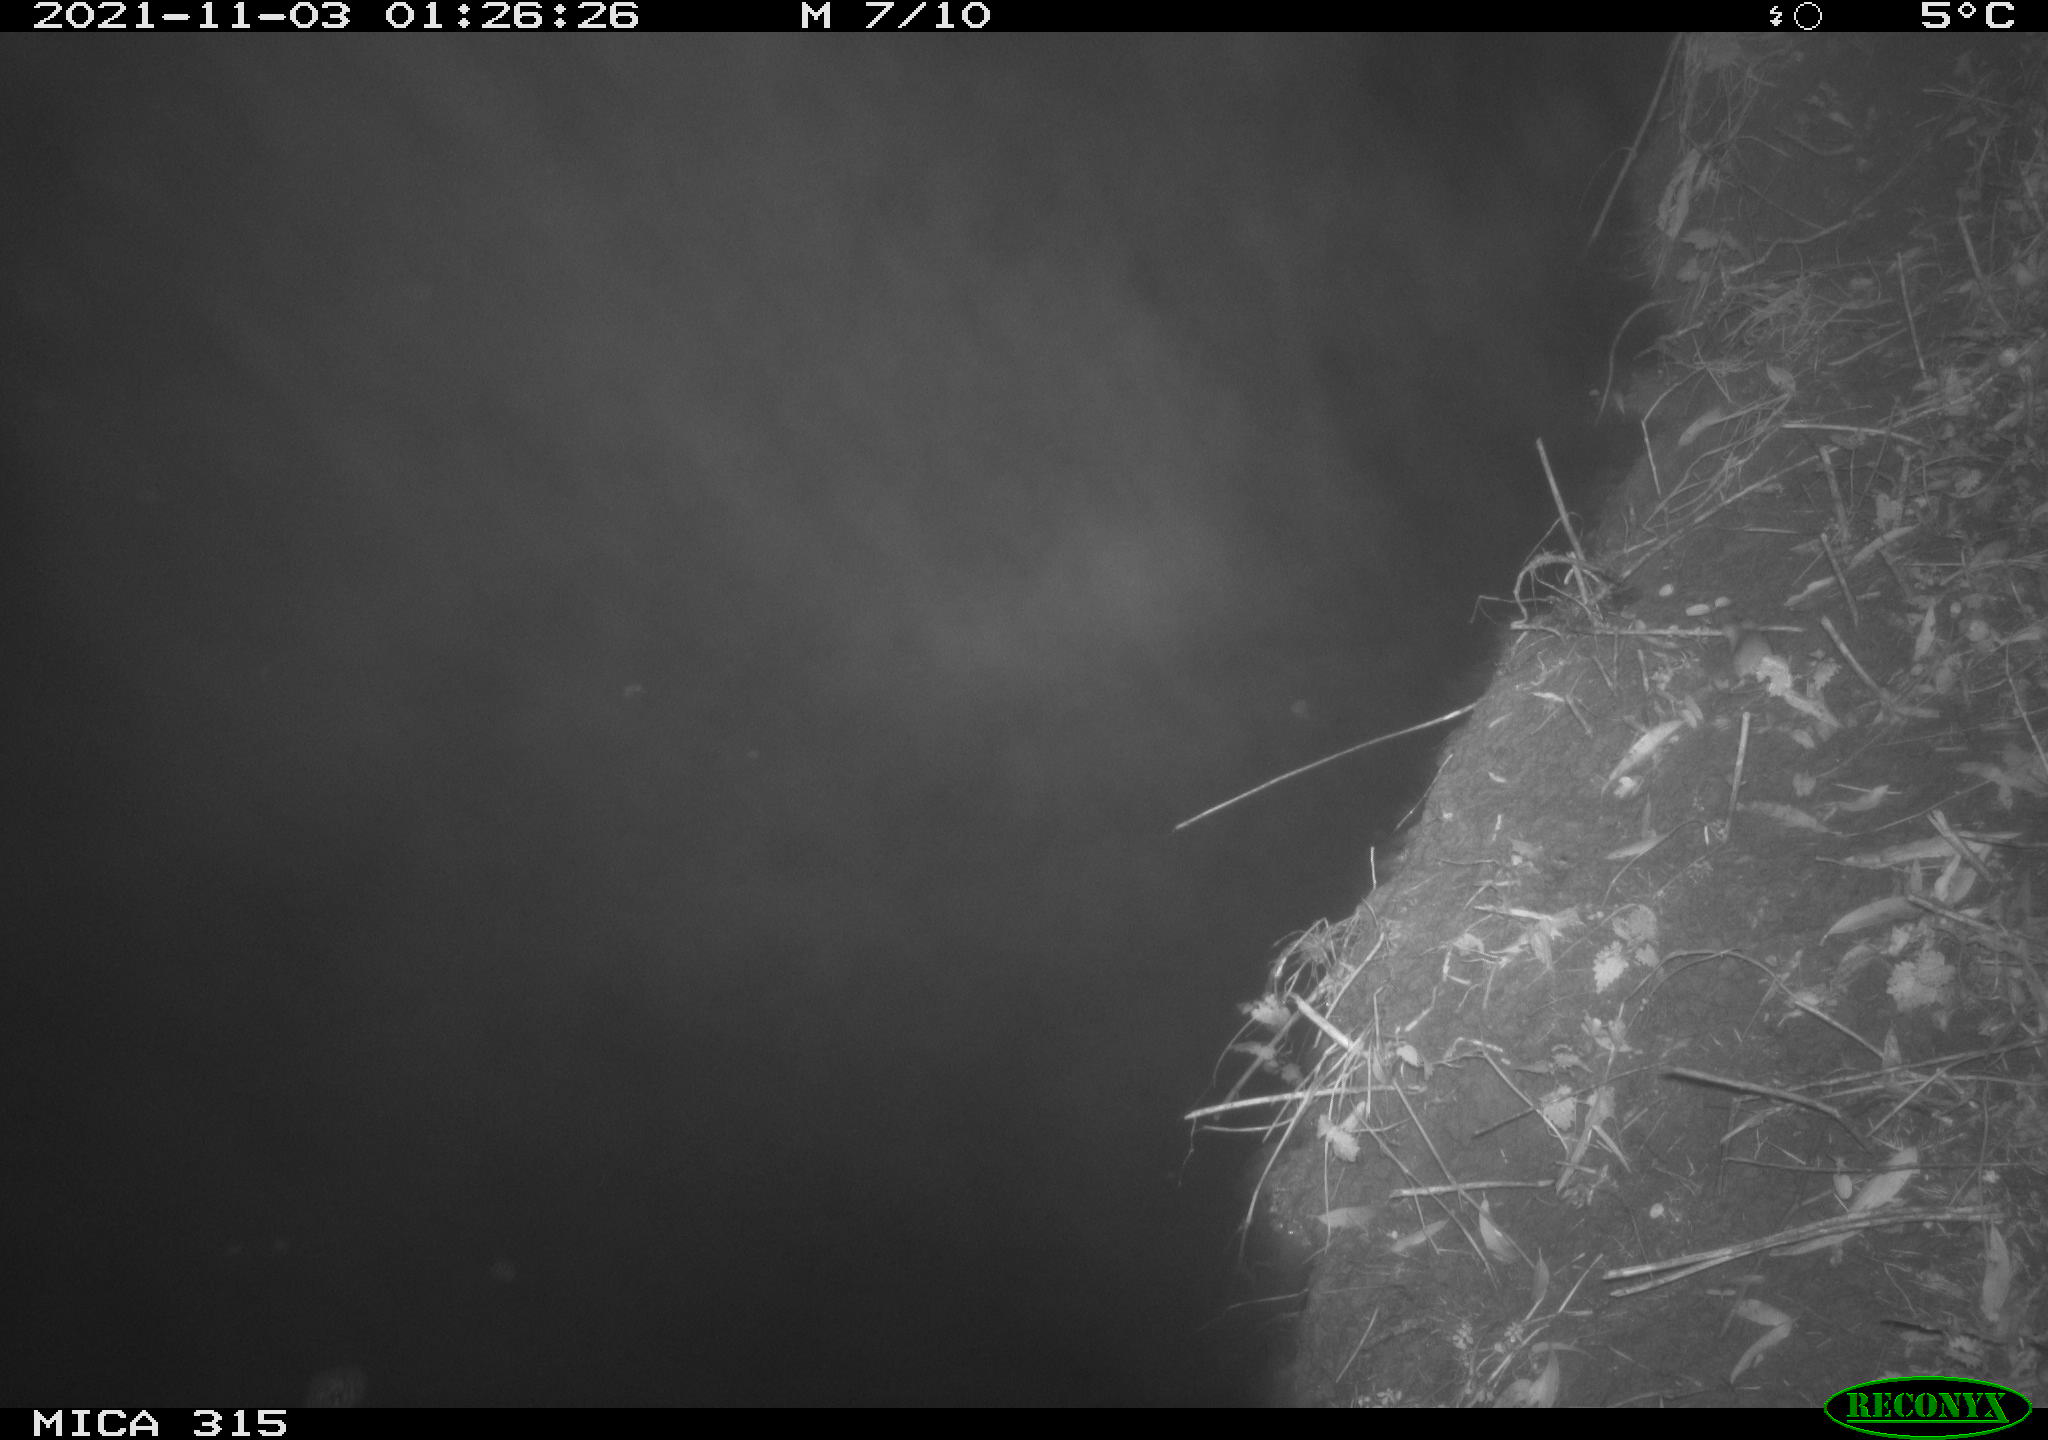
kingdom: Animalia
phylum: Chordata
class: Mammalia
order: Rodentia
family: Muridae
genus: Apodemus
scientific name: Apodemus sylvaticus
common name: Wood mouse
